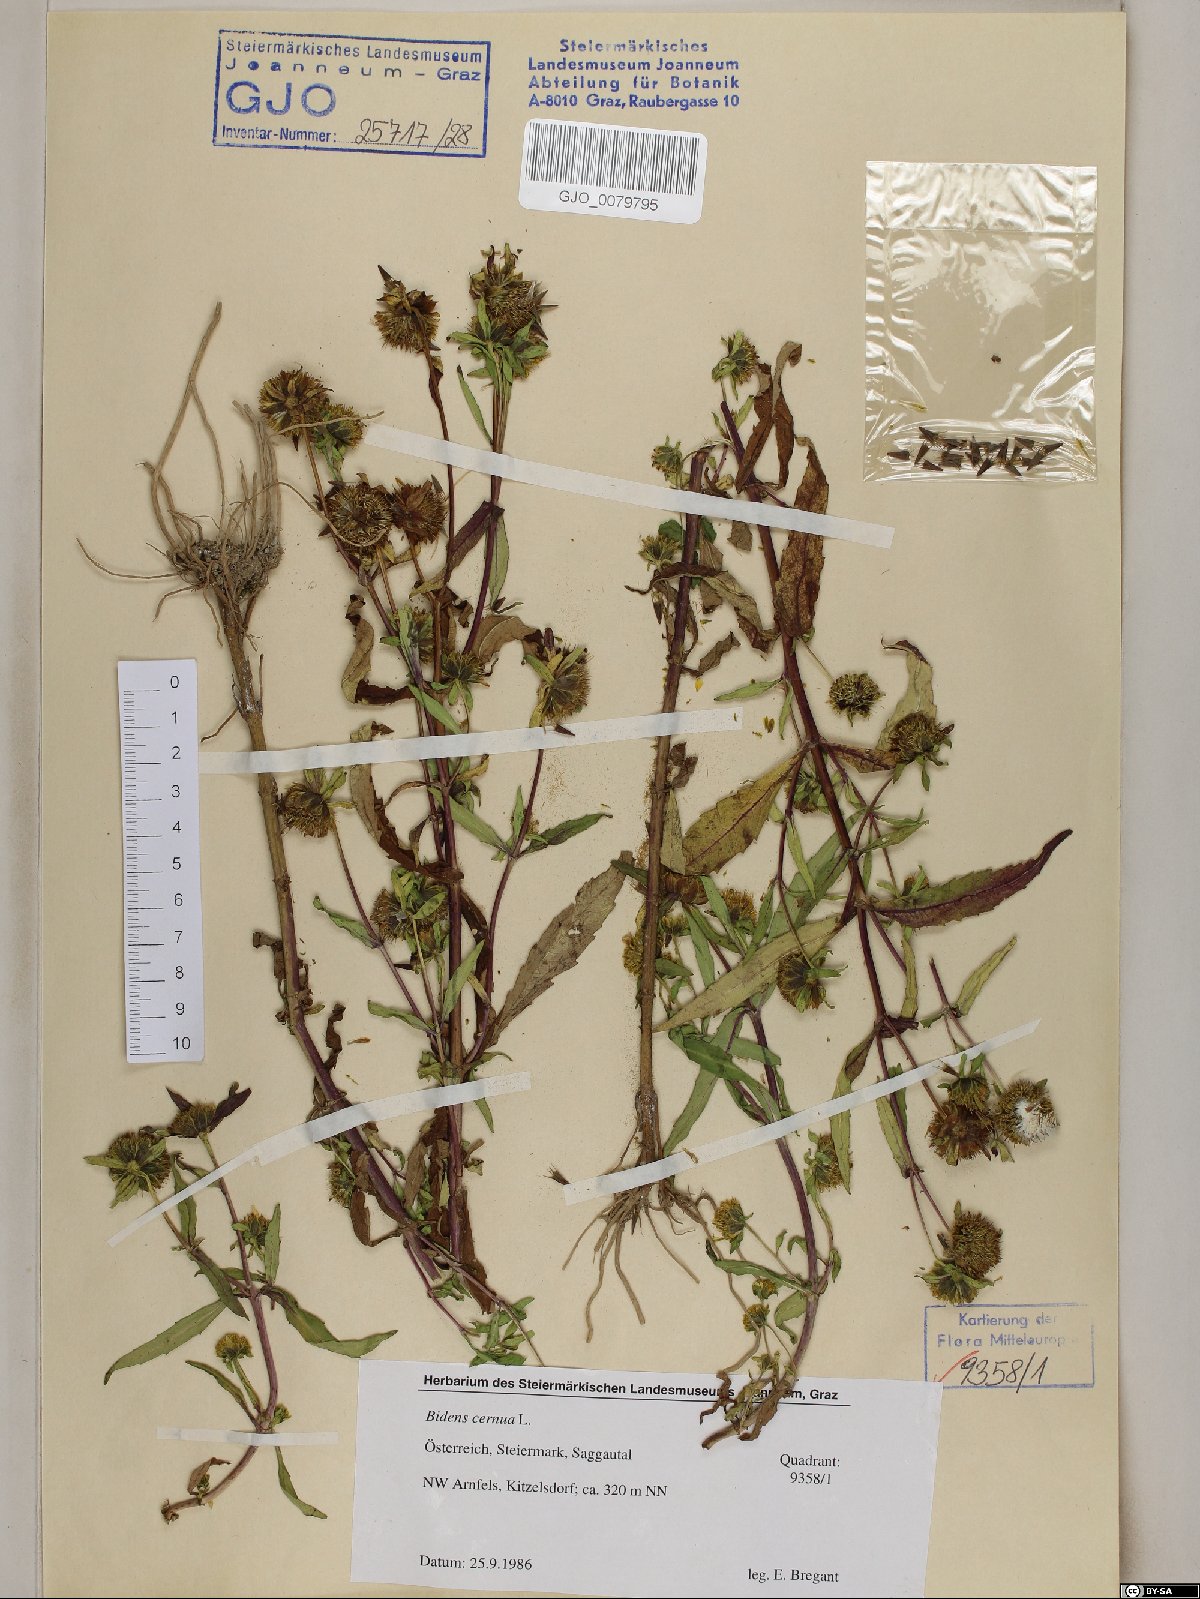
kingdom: Plantae
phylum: Tracheophyta
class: Magnoliopsida
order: Asterales
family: Asteraceae
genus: Bidens
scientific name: Bidens cernua
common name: Nodding bur-marigold
